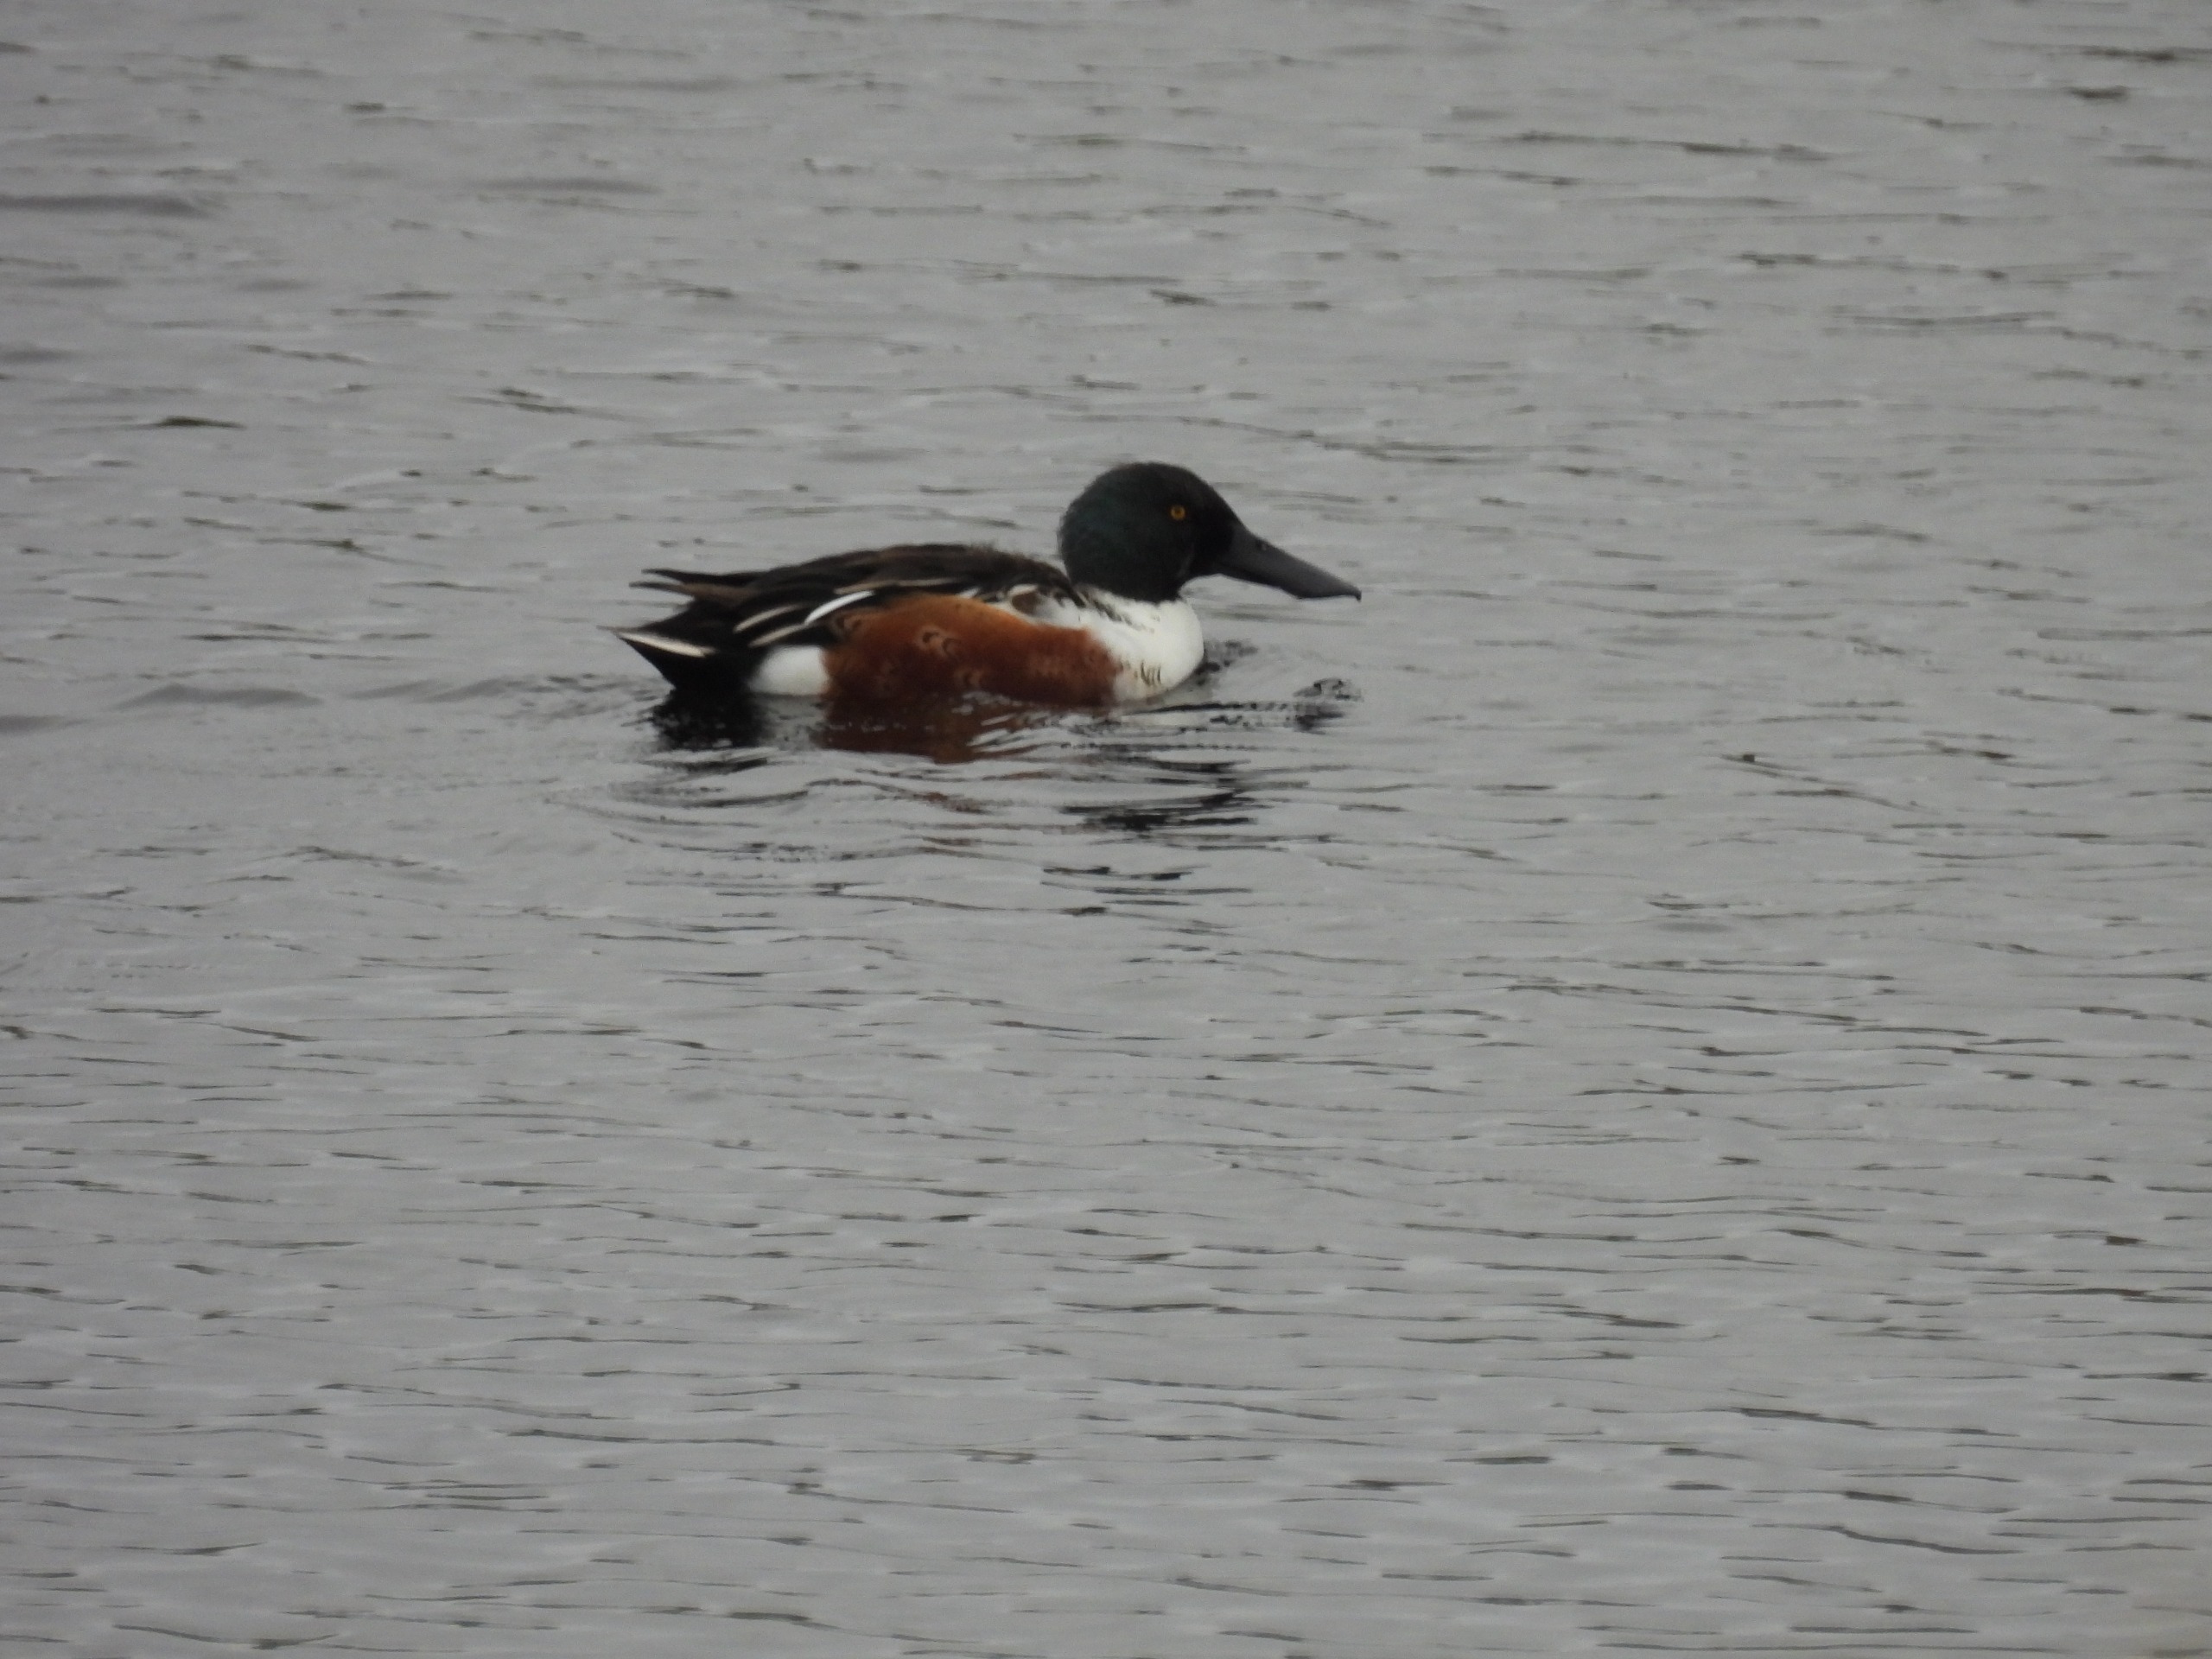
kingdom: Animalia
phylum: Chordata
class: Aves
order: Anseriformes
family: Anatidae
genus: Spatula
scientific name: Spatula clypeata
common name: Skeand
